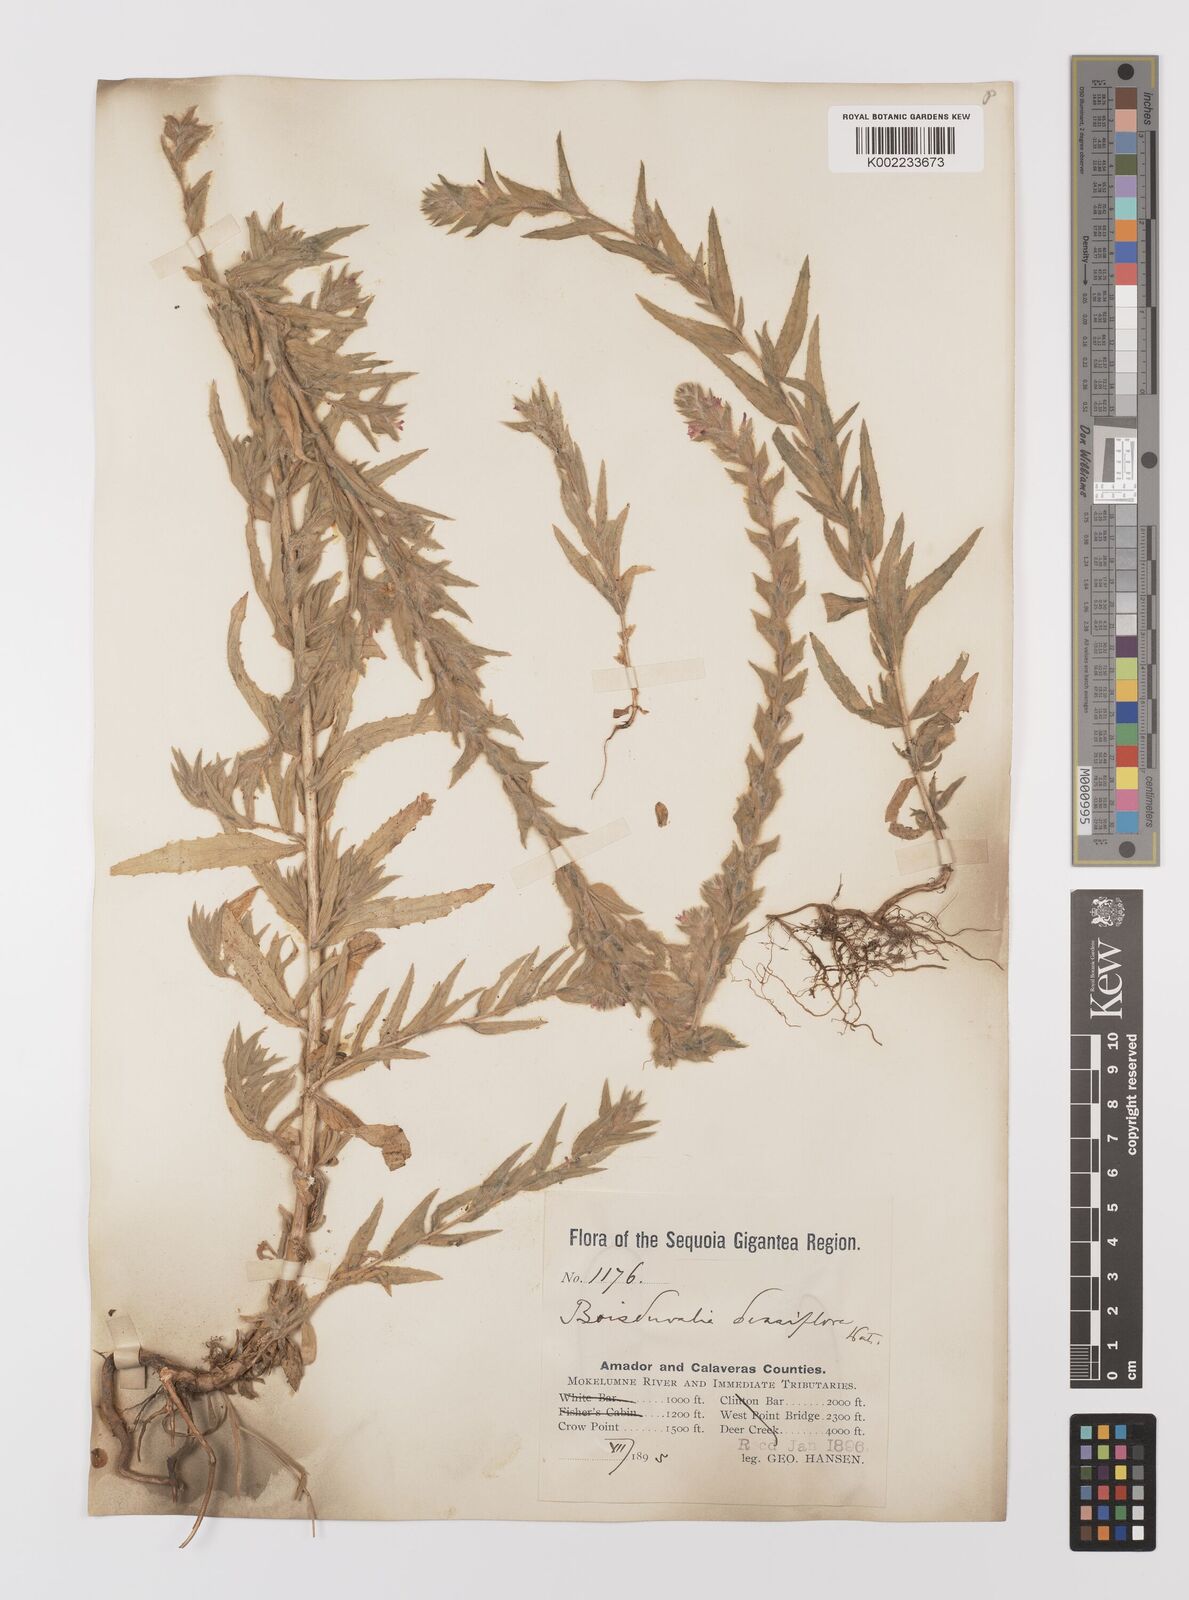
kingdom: Plantae
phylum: Tracheophyta
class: Magnoliopsida
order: Myrtales
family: Onagraceae
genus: Epilobium
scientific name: Epilobium densiflorum
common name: Dense spike-primrose
